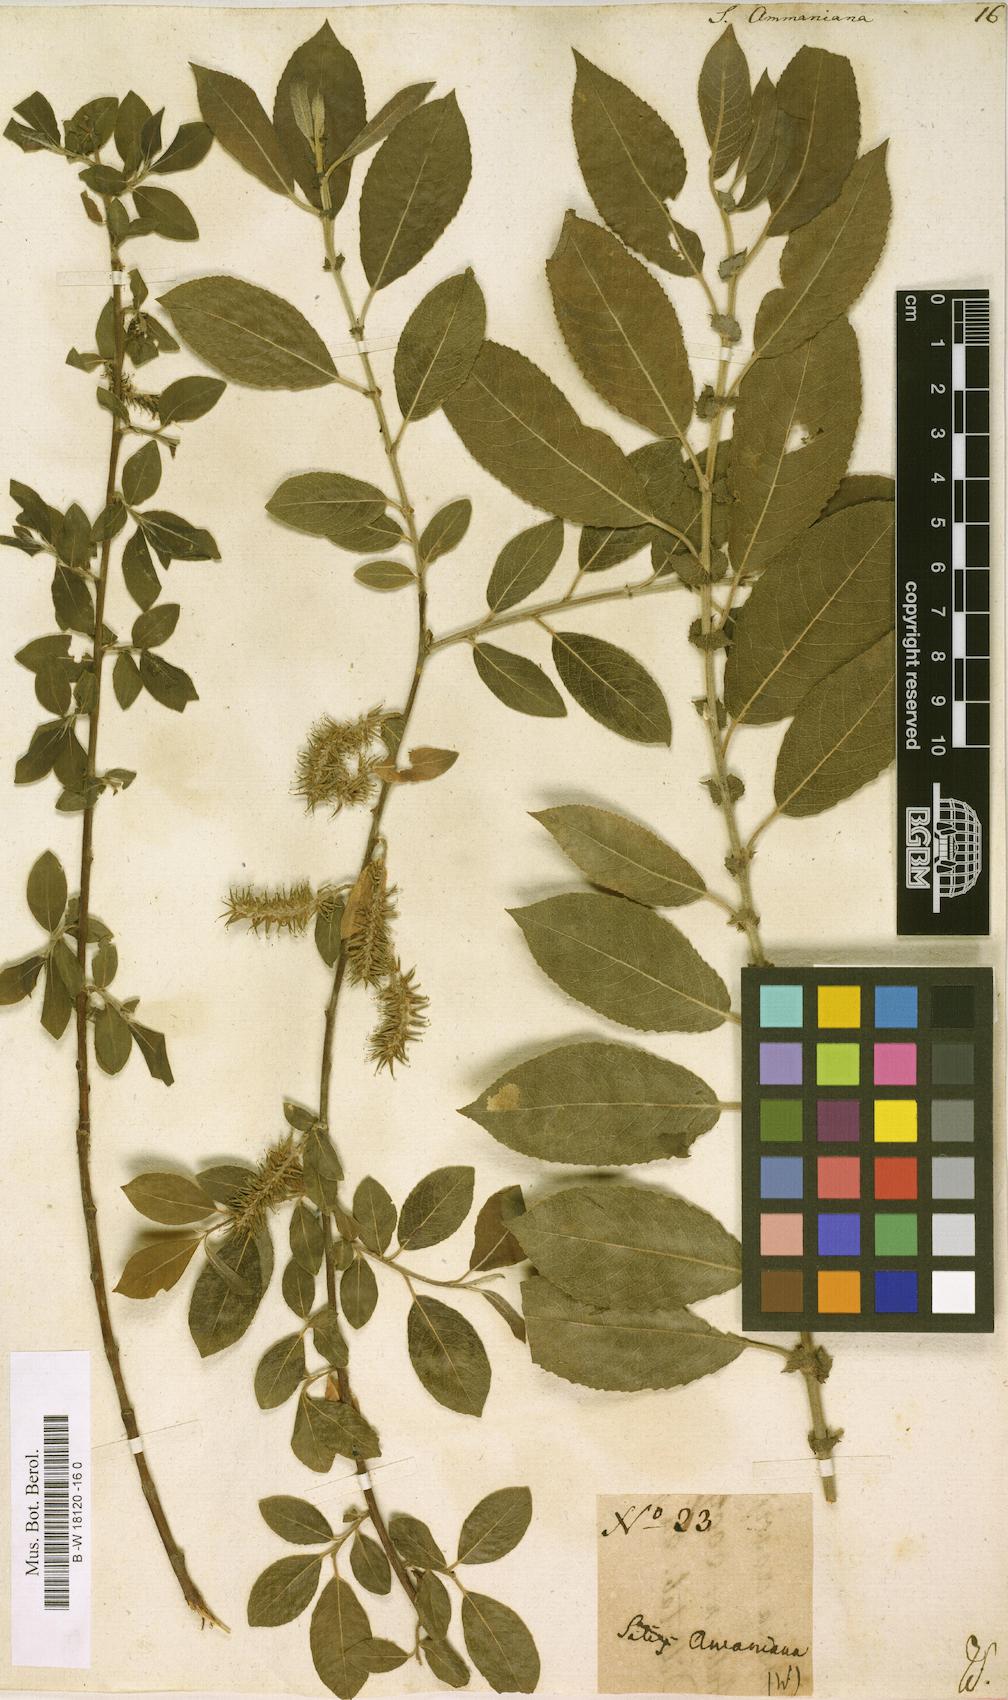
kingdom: Plantae
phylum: Tracheophyta
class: Magnoliopsida
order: Malpighiales
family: Salicaceae
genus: Salix
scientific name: Salix myrsinifolia
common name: Dark-leaved willow
